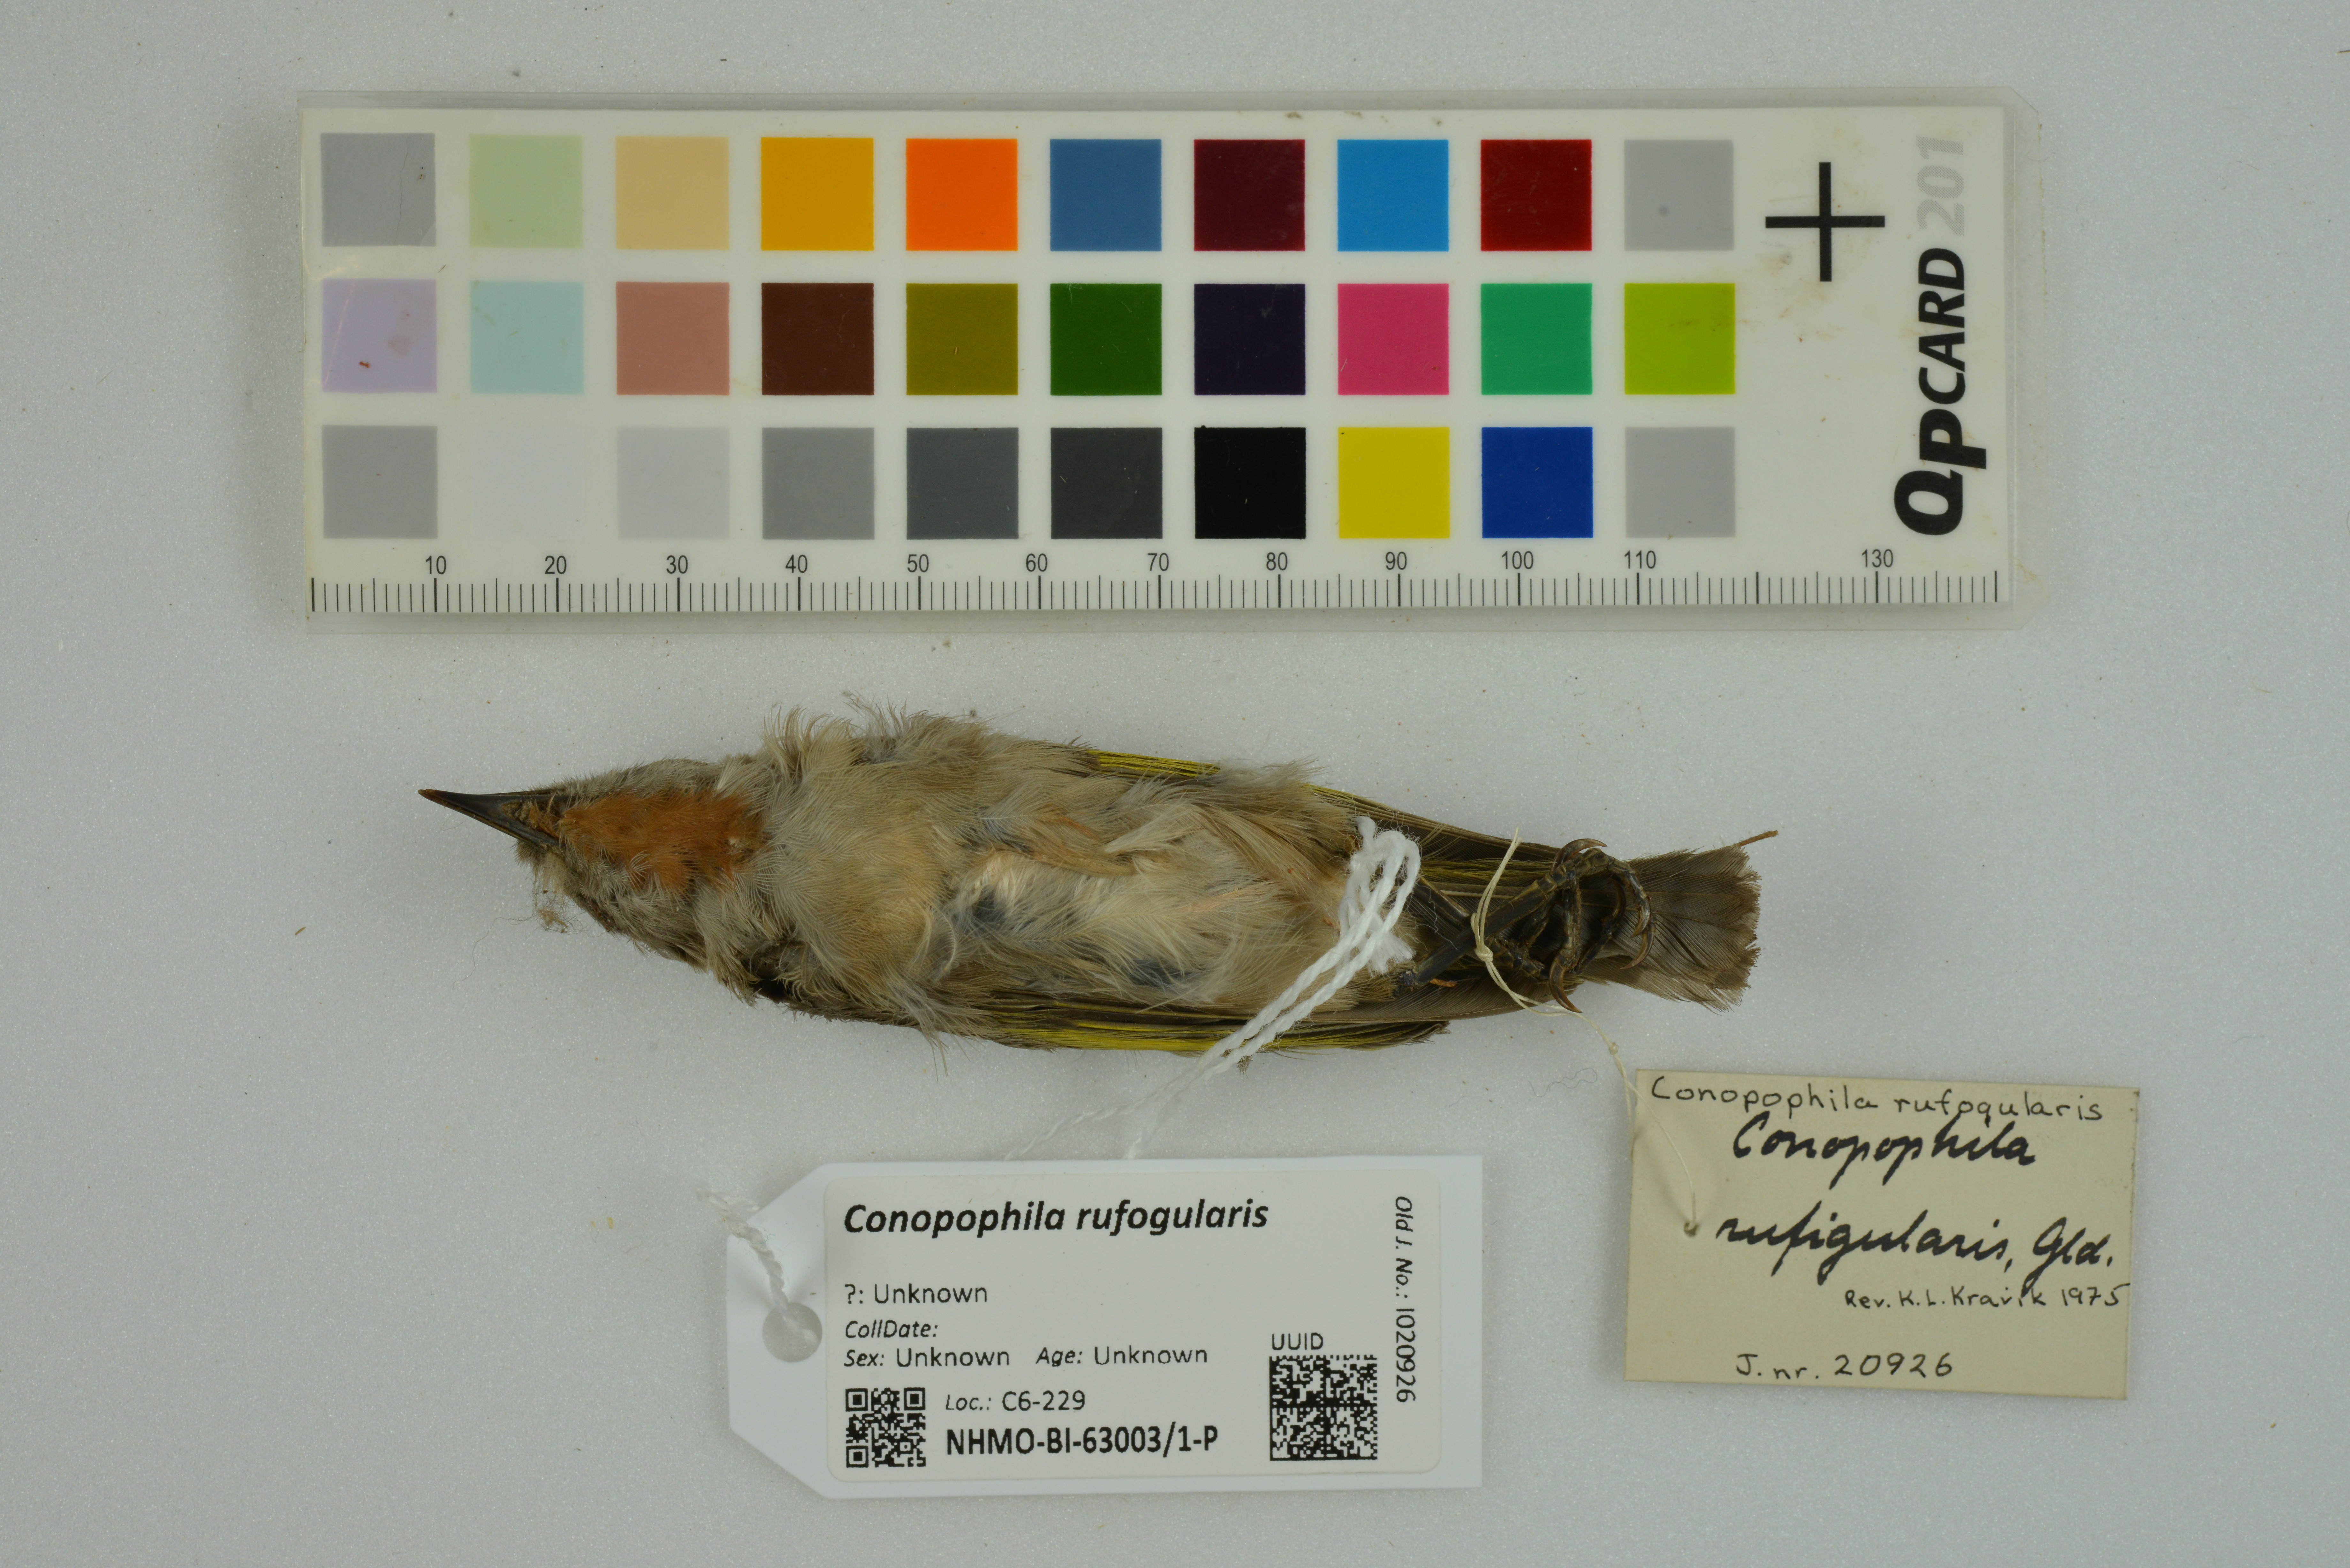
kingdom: Animalia
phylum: Chordata
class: Aves
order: Passeriformes
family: Meliphagidae
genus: Conopophila
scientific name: Conopophila rufogularis
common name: Rufous-throated honeyeater
